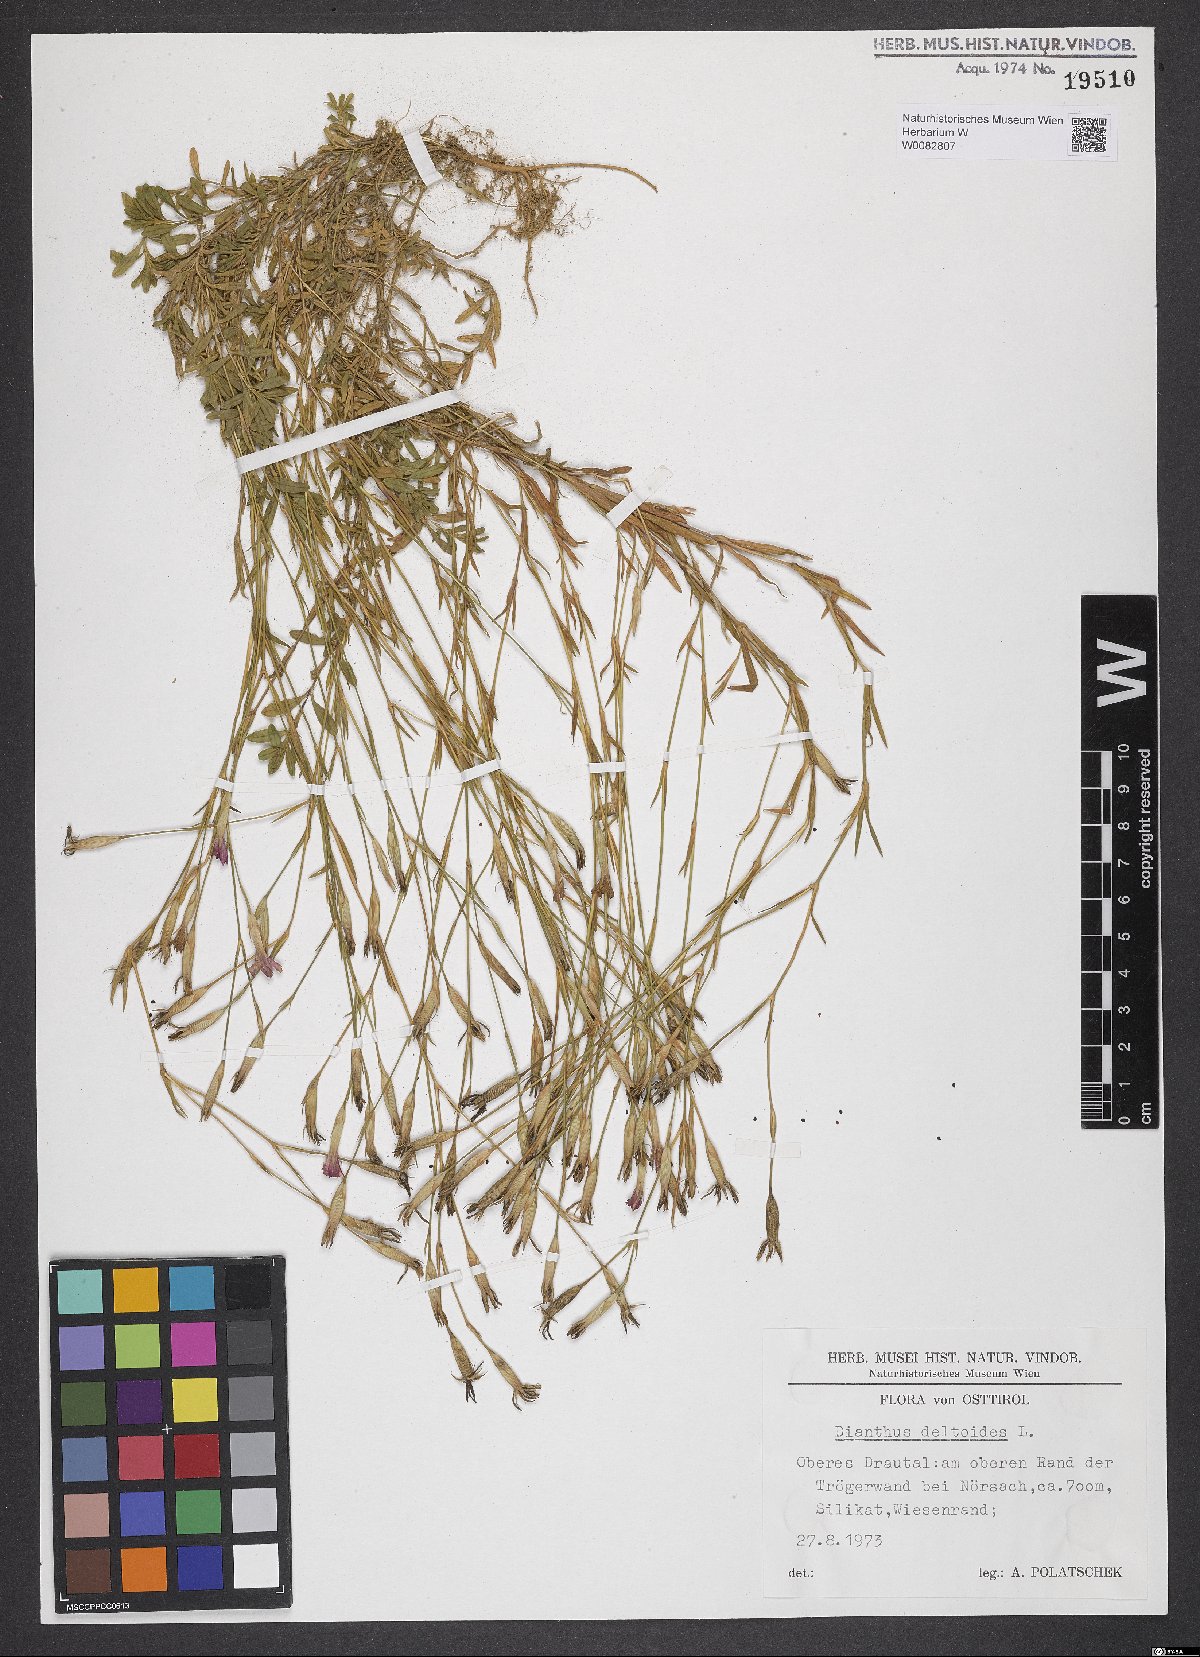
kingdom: Plantae
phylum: Tracheophyta
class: Magnoliopsida
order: Caryophyllales
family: Caryophyllaceae
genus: Dianthus
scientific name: Dianthus deltoides
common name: Maiden pink
